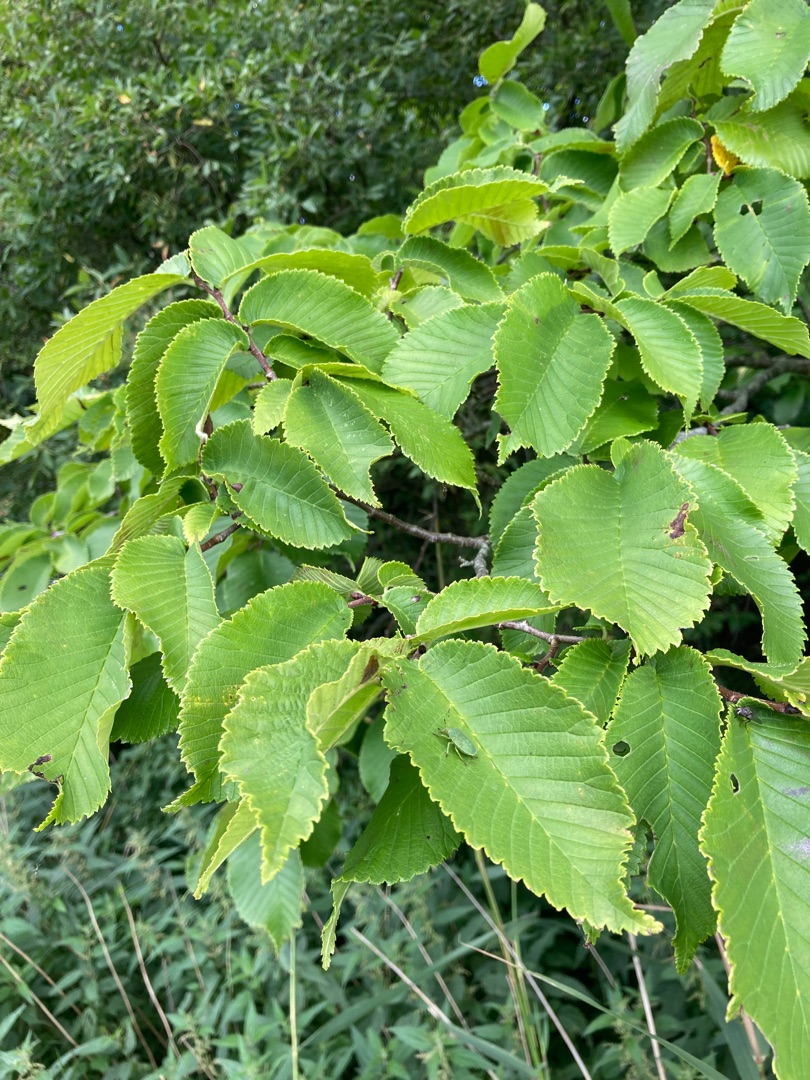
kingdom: Plantae
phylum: Tracheophyta
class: Magnoliopsida
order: Rosales
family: Ulmaceae
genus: Ulmus
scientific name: Ulmus glabra
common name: Skov-elm/storbladet elm
